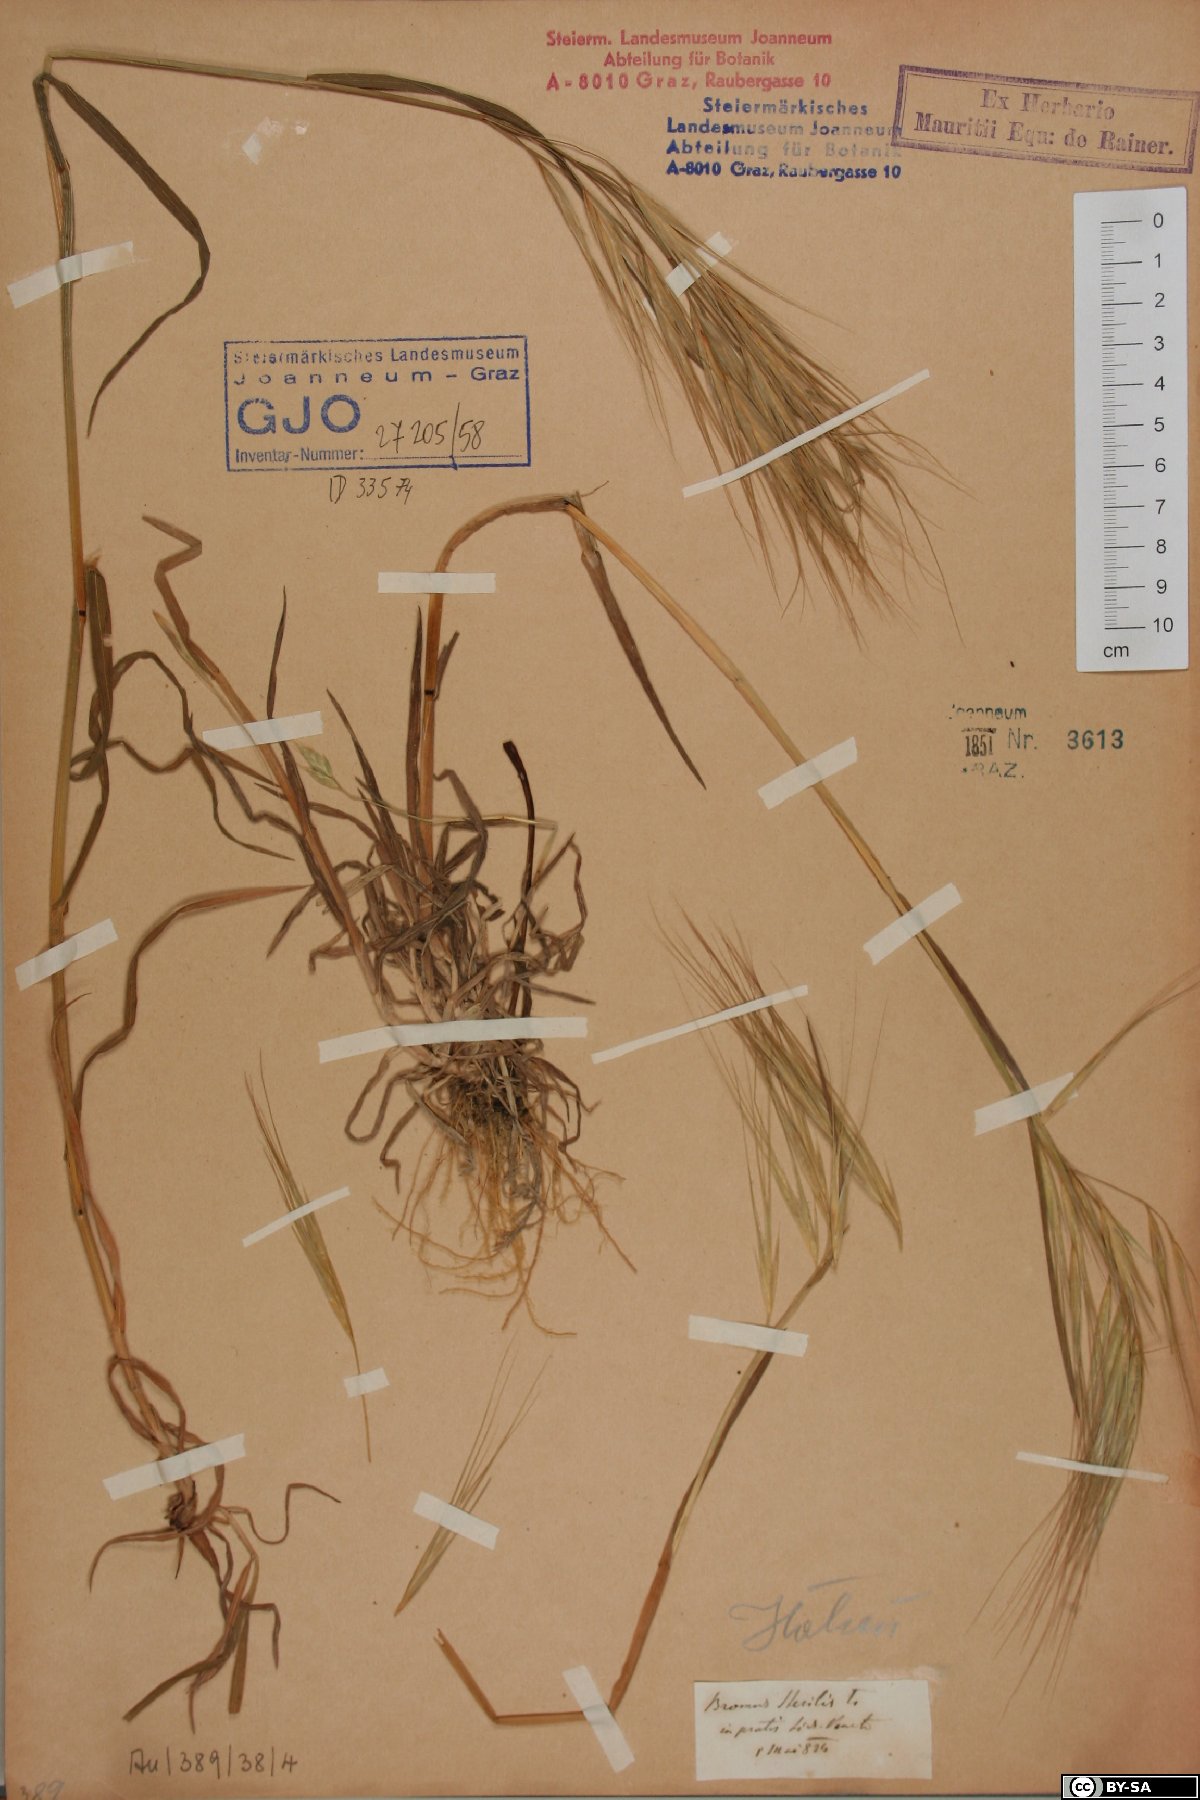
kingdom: Plantae
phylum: Tracheophyta
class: Liliopsida
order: Poales
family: Poaceae
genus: Bromus
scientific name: Bromus sterilis
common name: Poverty brome
